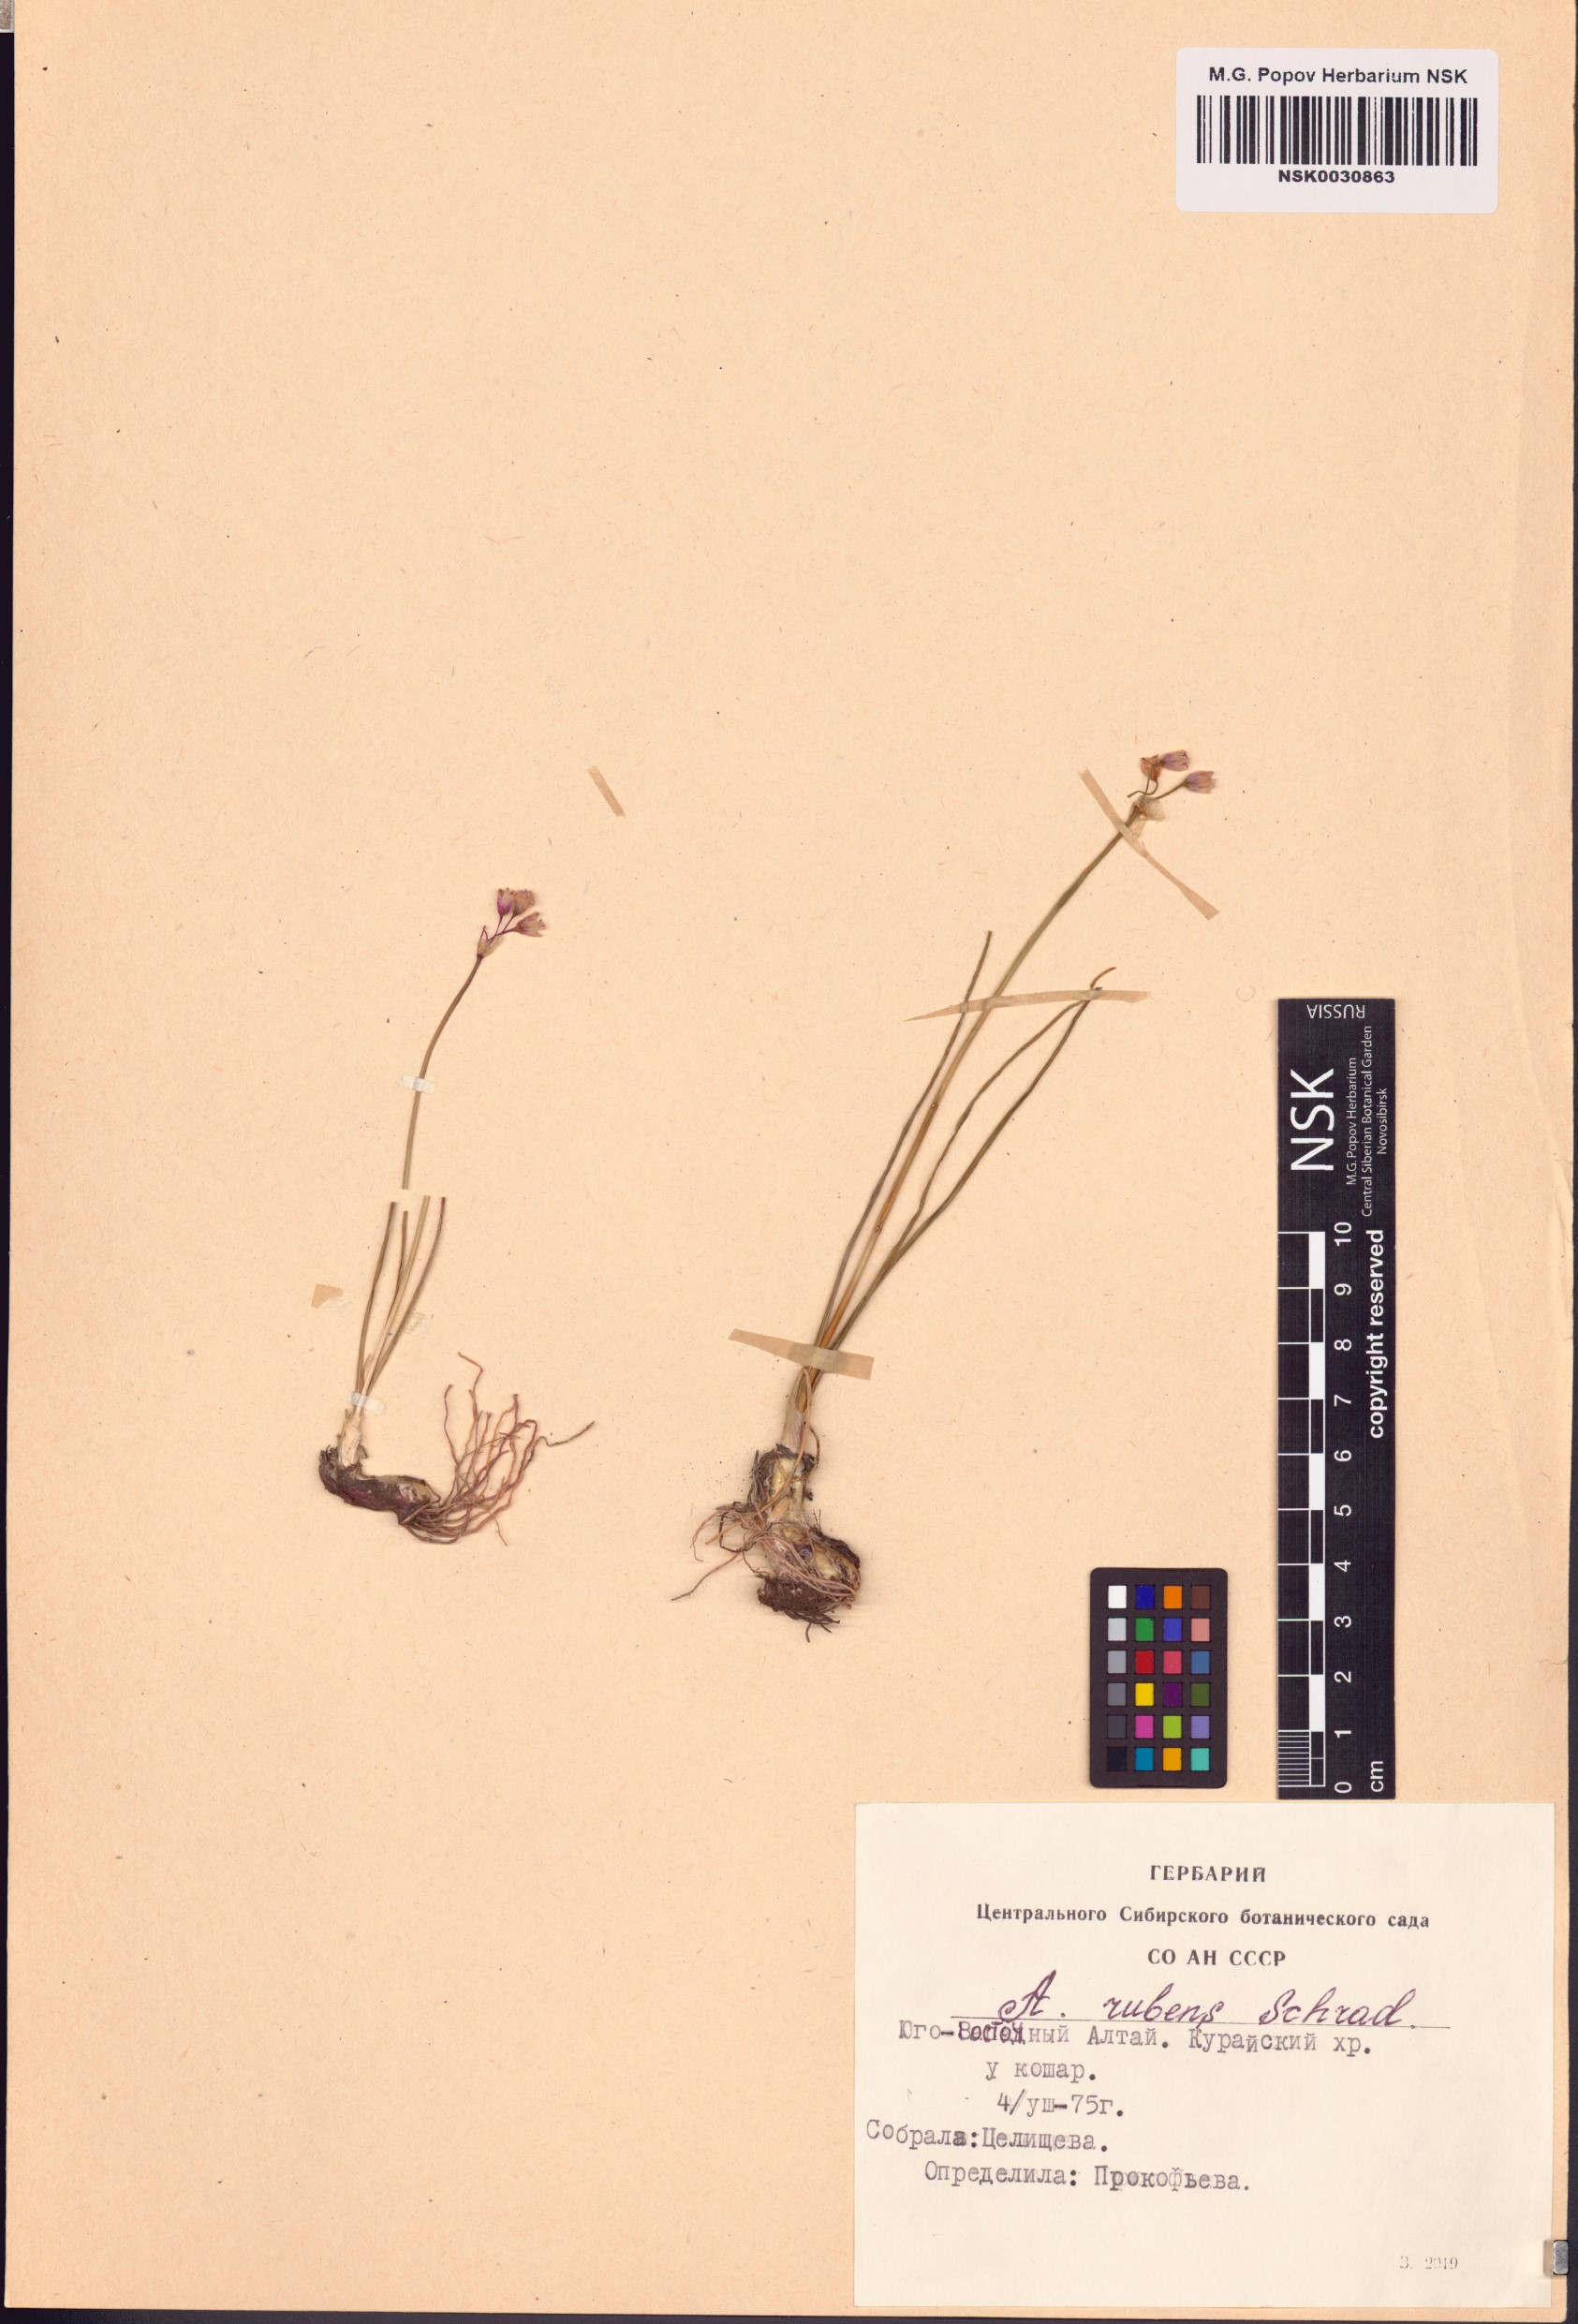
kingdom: Plantae
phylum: Tracheophyta
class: Liliopsida
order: Asparagales
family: Amaryllidaceae
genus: Allium
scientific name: Allium rubens
